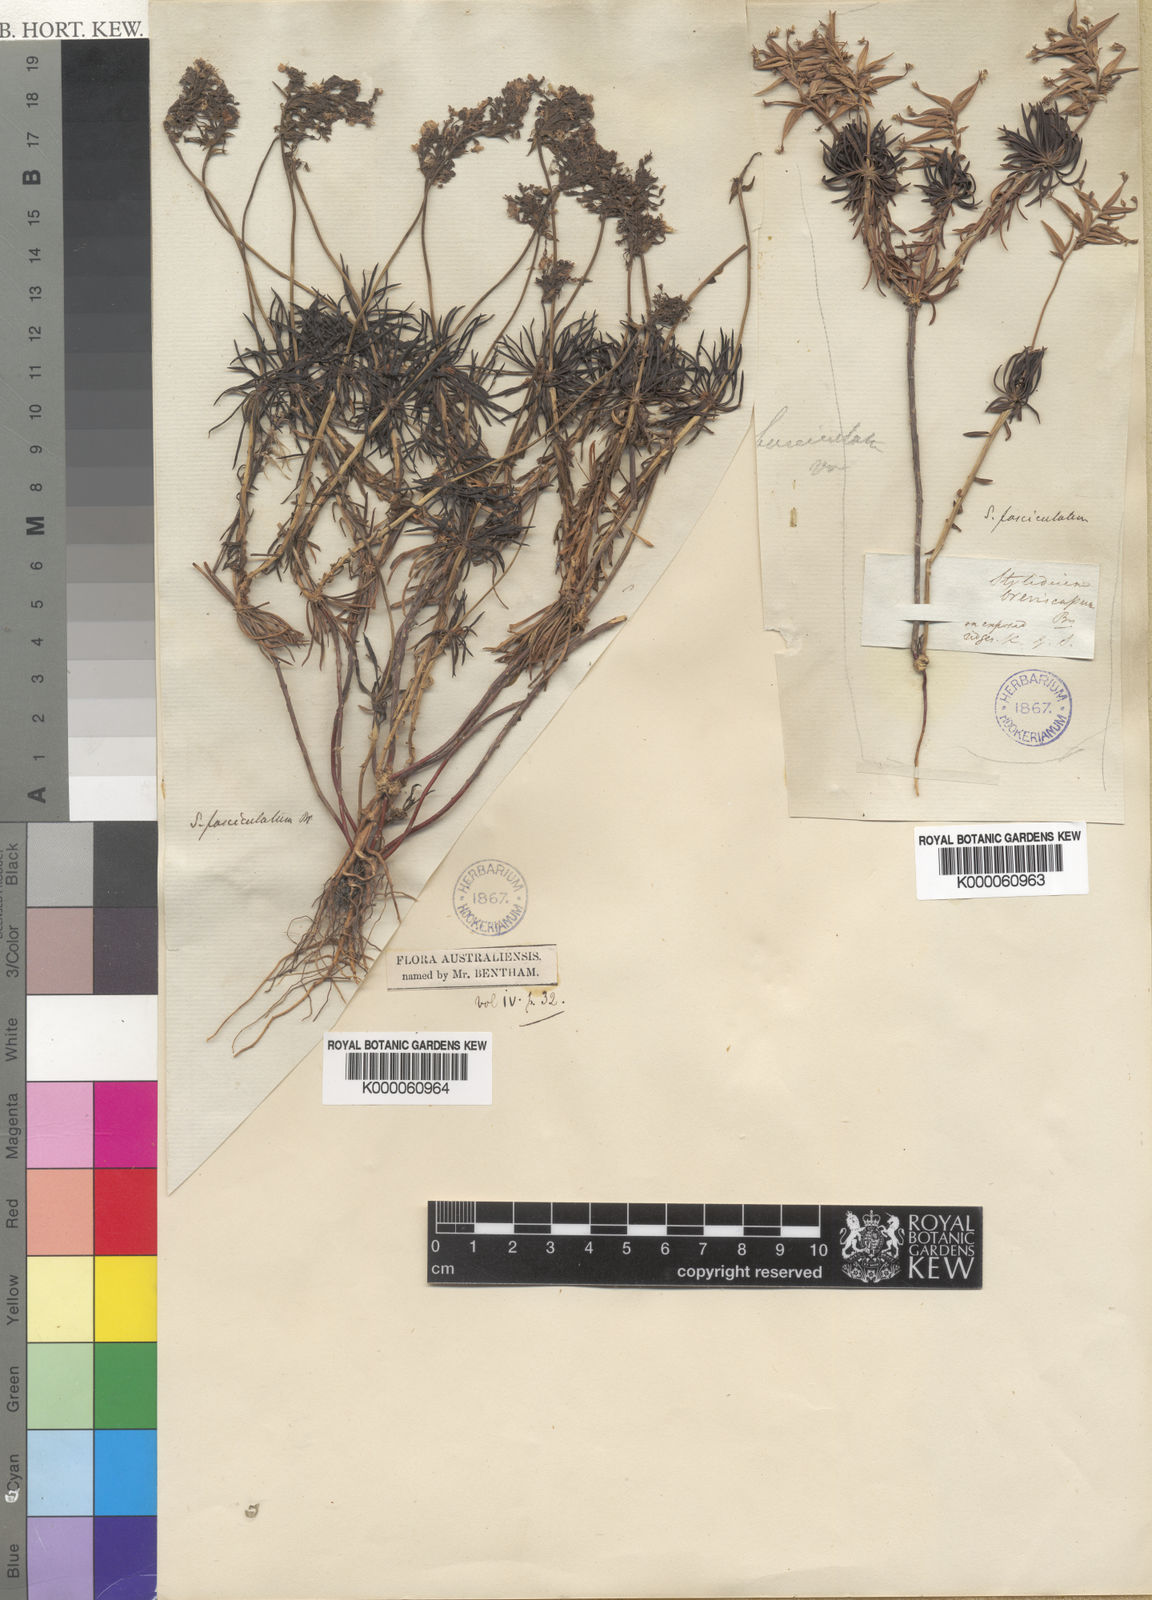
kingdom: Plantae
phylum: Tracheophyta
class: Magnoliopsida
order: Asterales
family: Stylidiaceae
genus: Stylidium
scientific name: Stylidium fasciculatum
